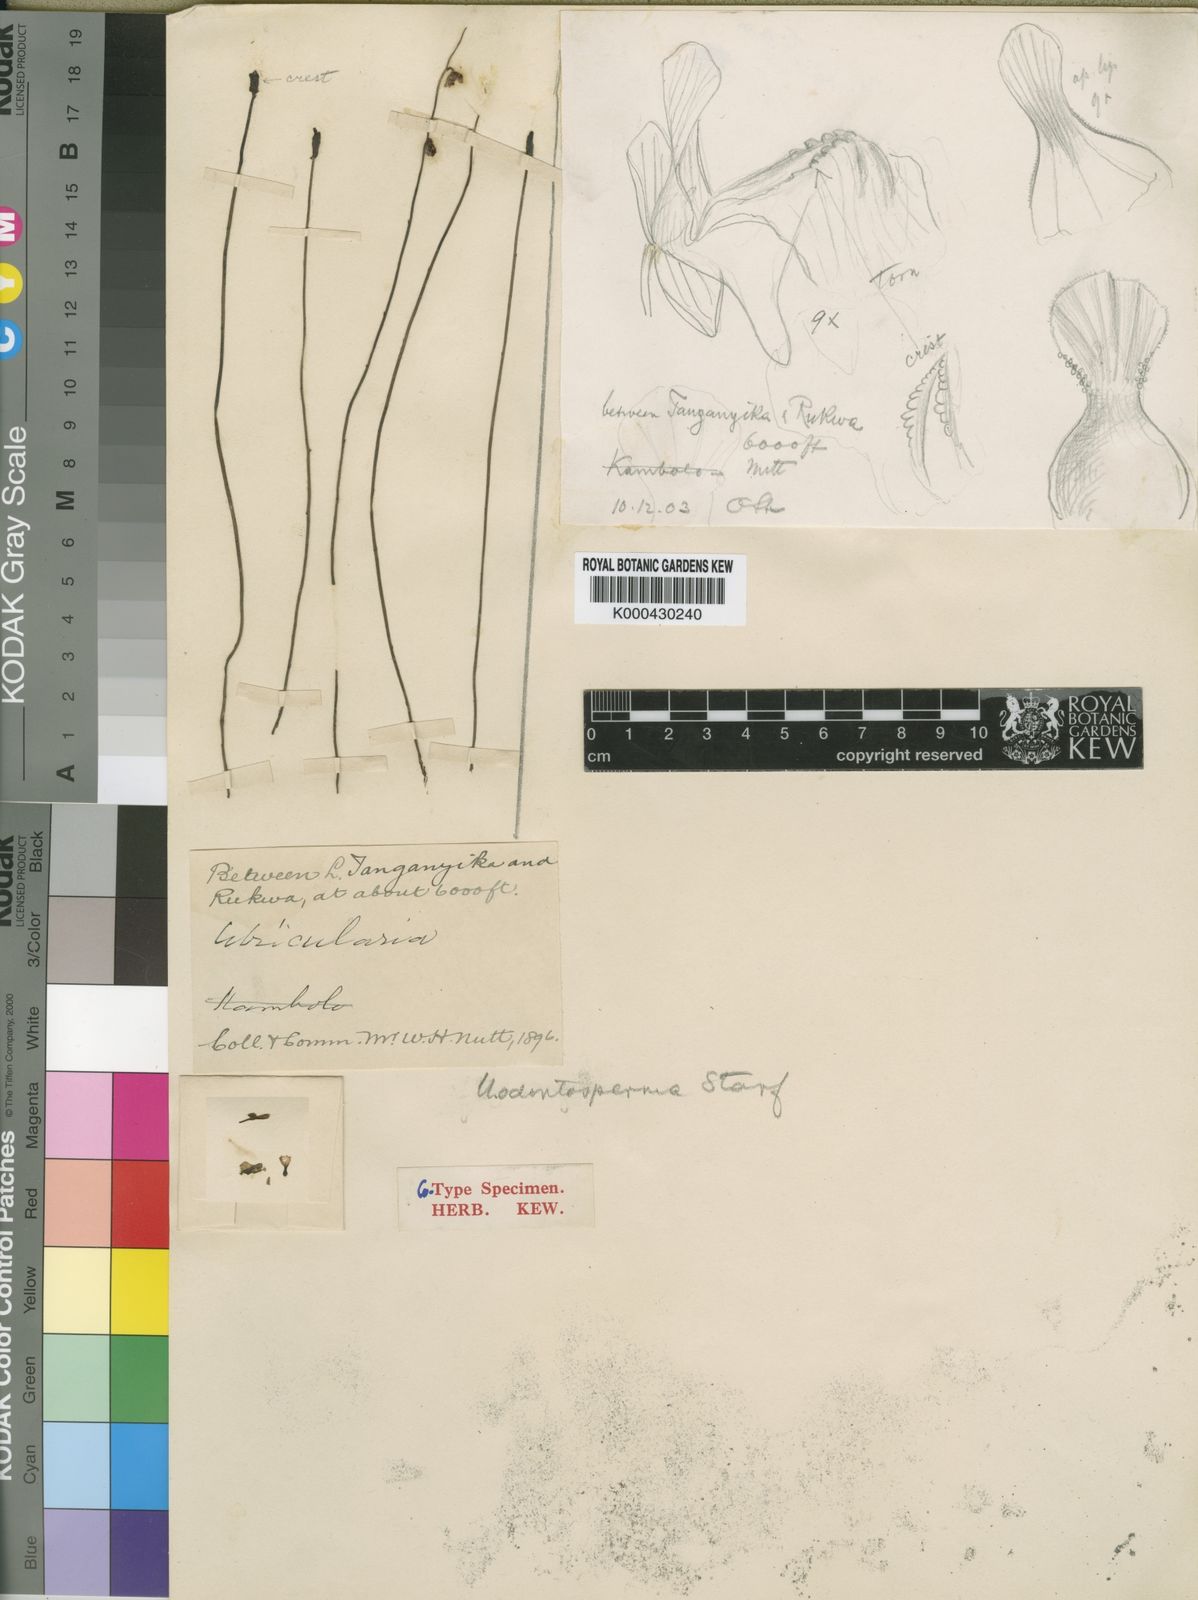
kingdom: Plantae
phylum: Tracheophyta
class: Magnoliopsida
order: Lamiales
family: Lentibulariaceae
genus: Utricularia
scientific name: Utricularia livida
